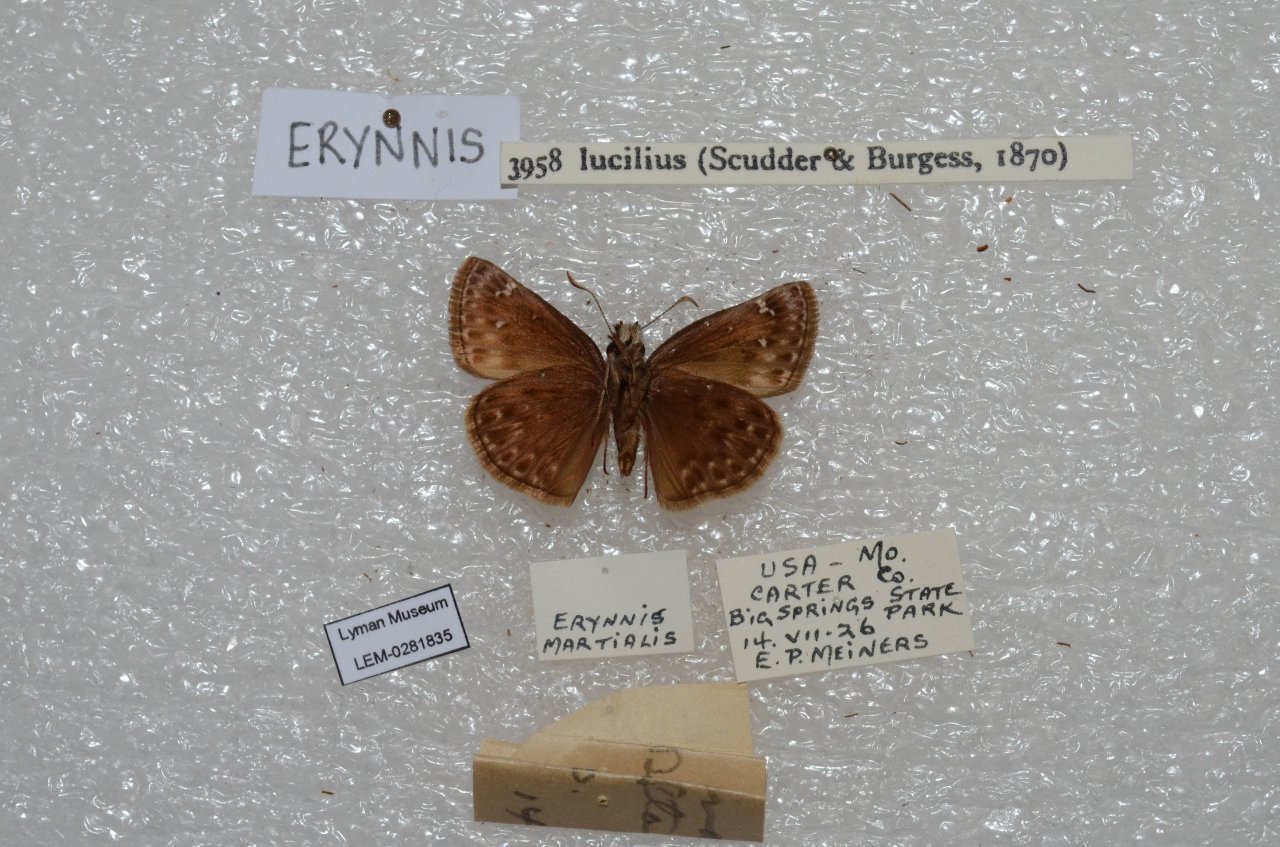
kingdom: Animalia
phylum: Arthropoda
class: Insecta
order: Lepidoptera
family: Hesperiidae
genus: Gesta
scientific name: Gesta
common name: Columbine Duskywing
